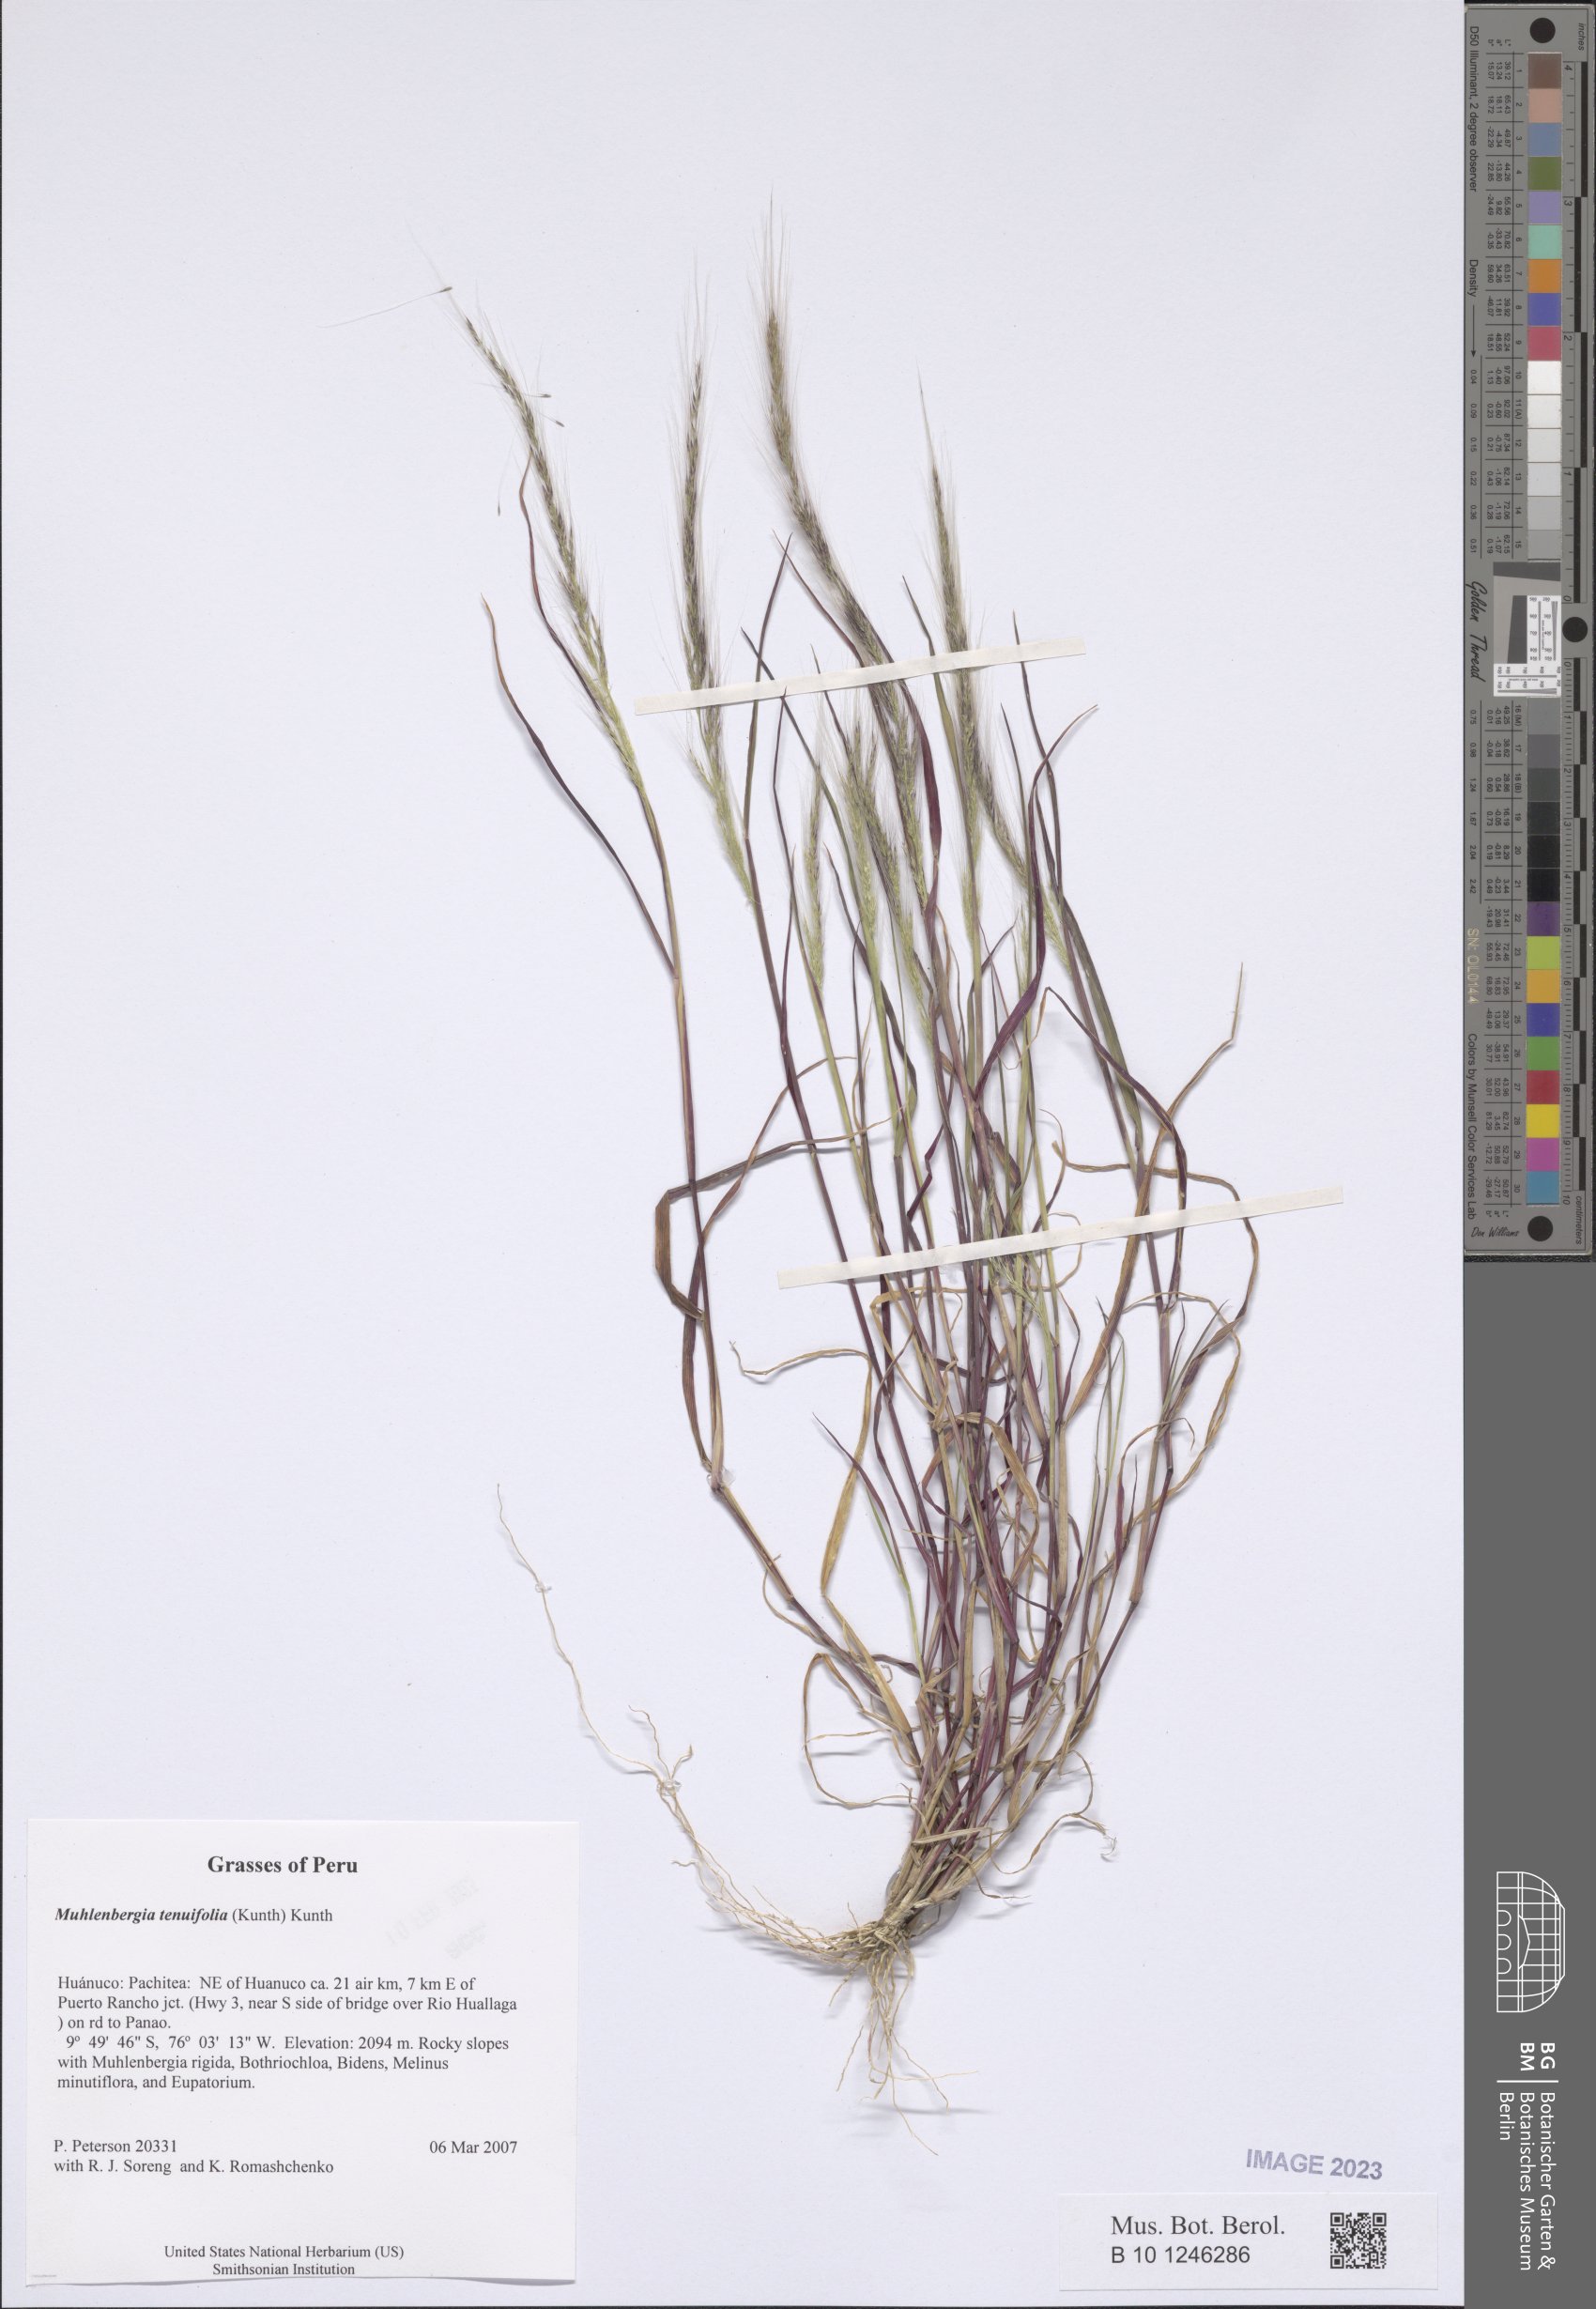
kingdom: Plantae
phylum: Tracheophyta
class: Liliopsida
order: Poales
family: Poaceae
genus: Muhlenbergia
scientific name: Muhlenbergia tenuifolia
